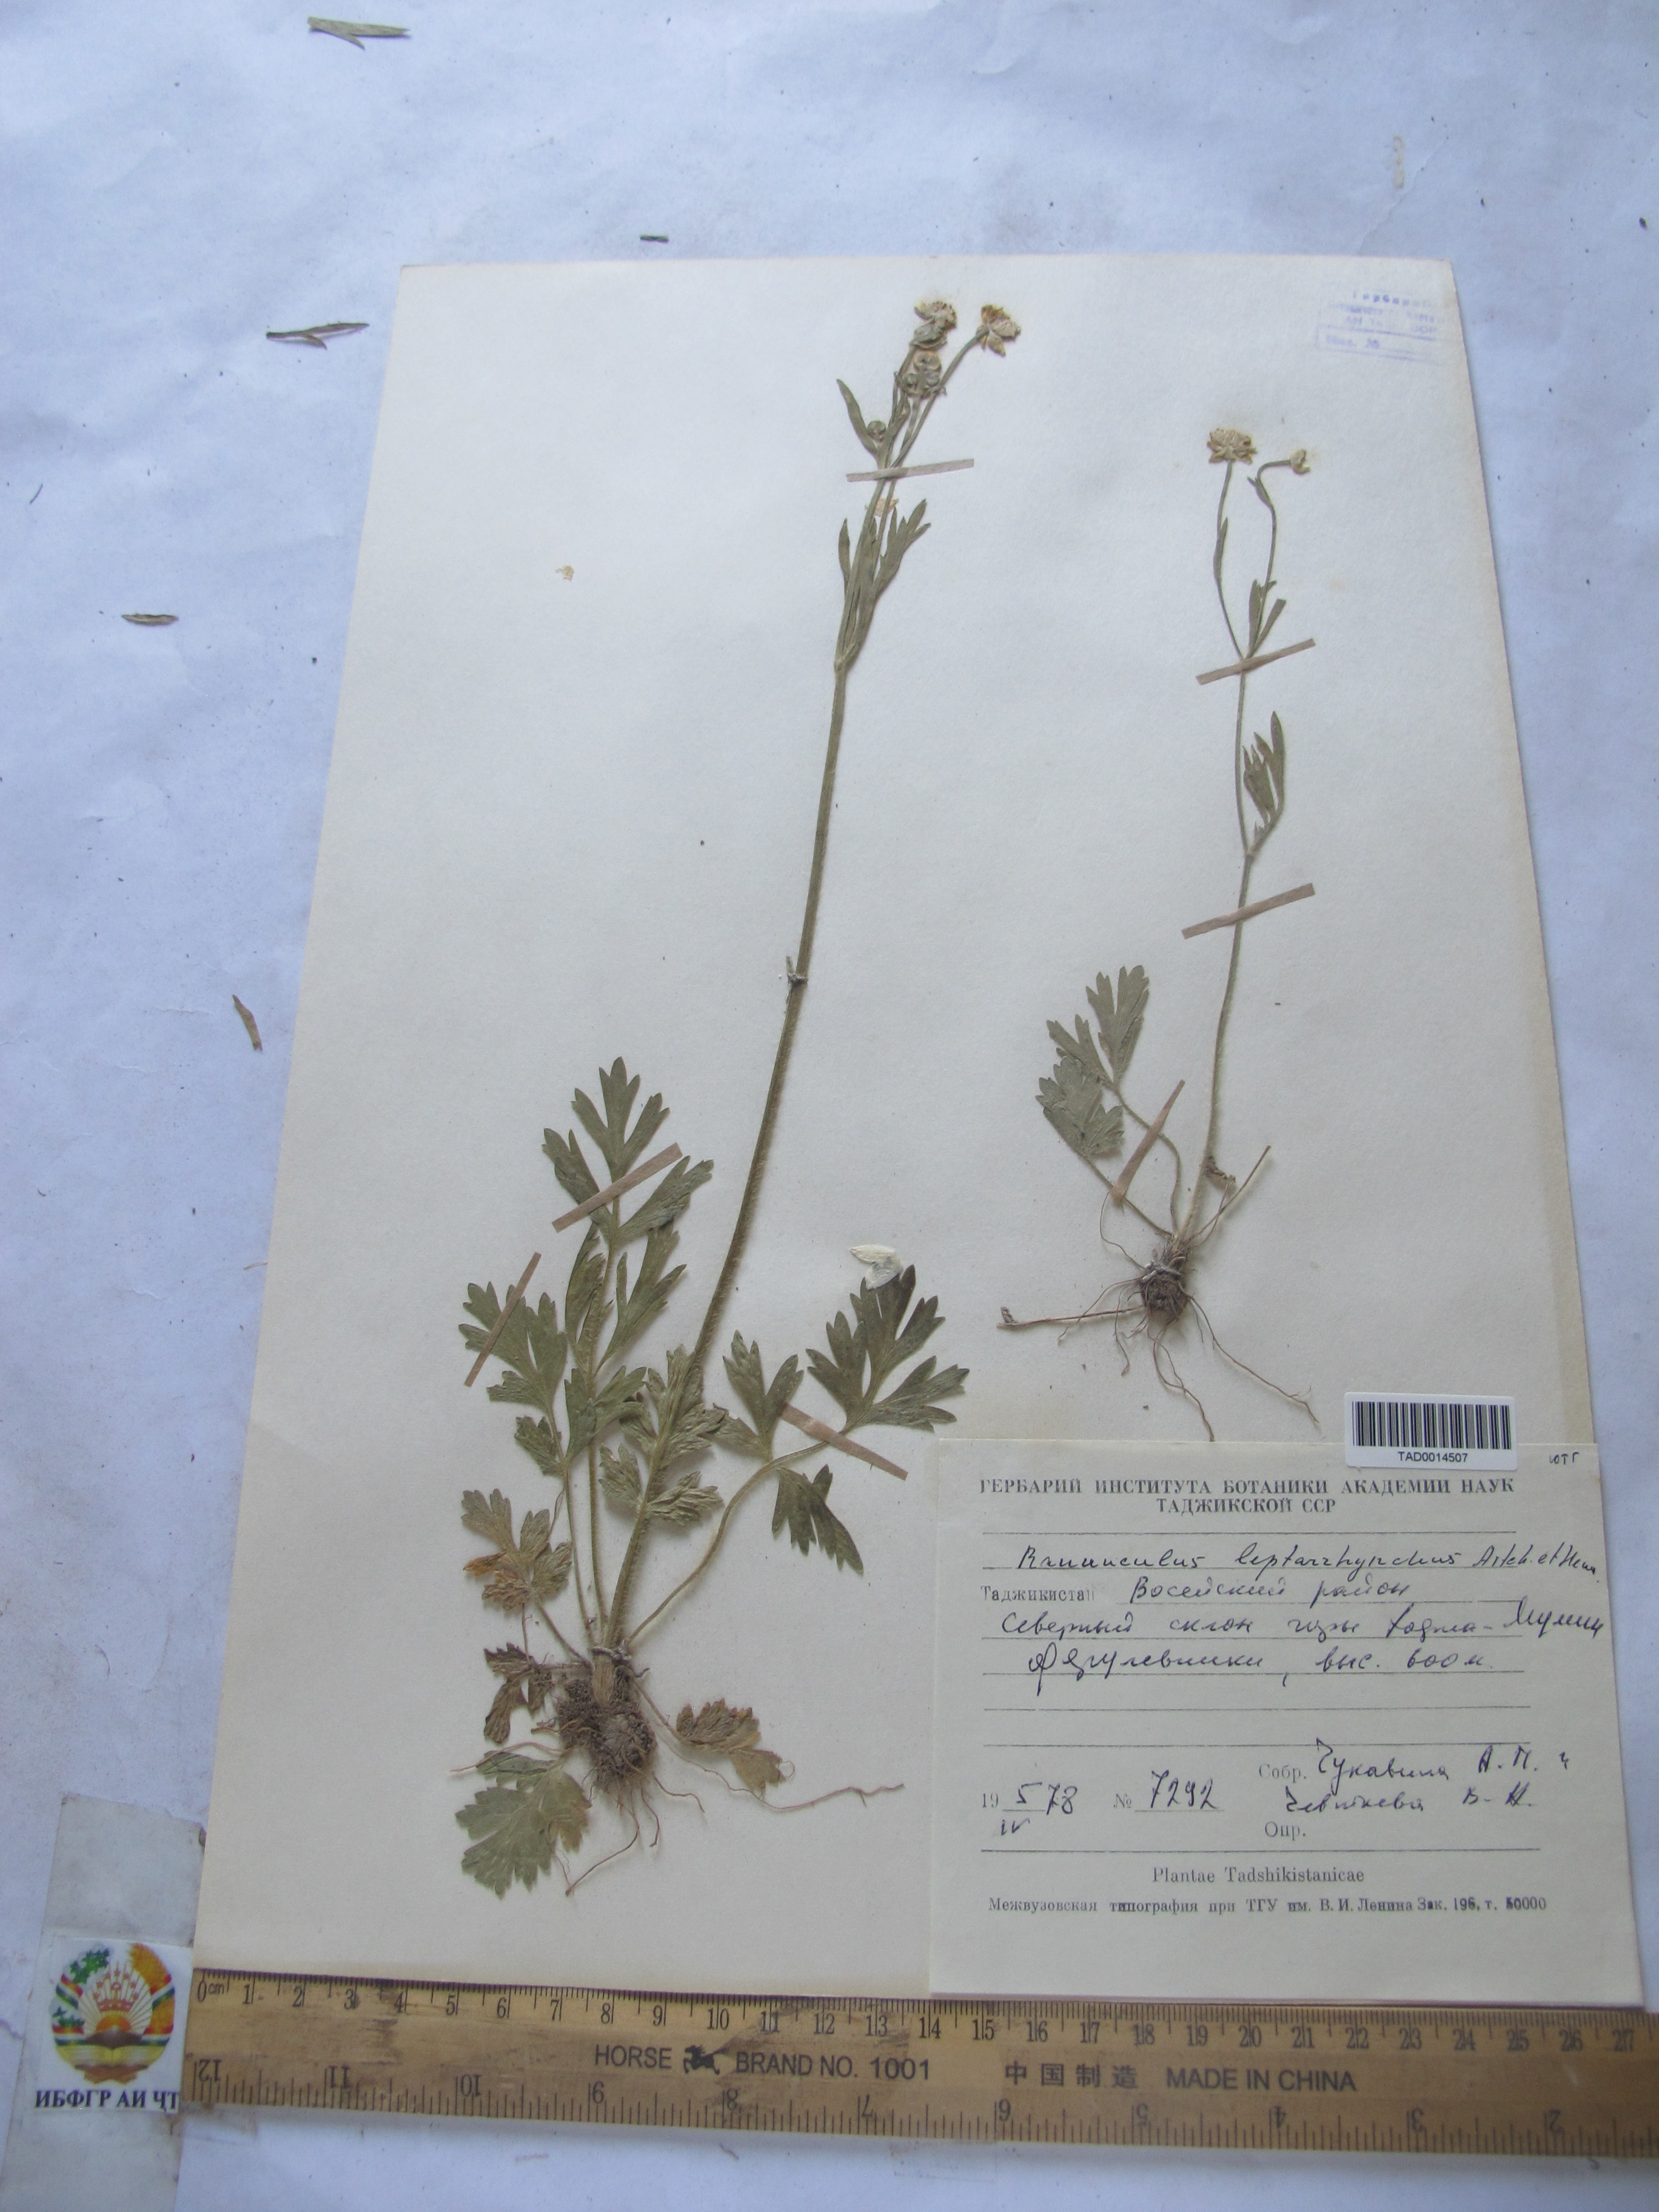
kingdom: Plantae
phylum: Tracheophyta
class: Magnoliopsida
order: Ranunculales
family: Ranunculaceae
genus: Ranunculus
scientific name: Ranunculus leptorrhynchus
